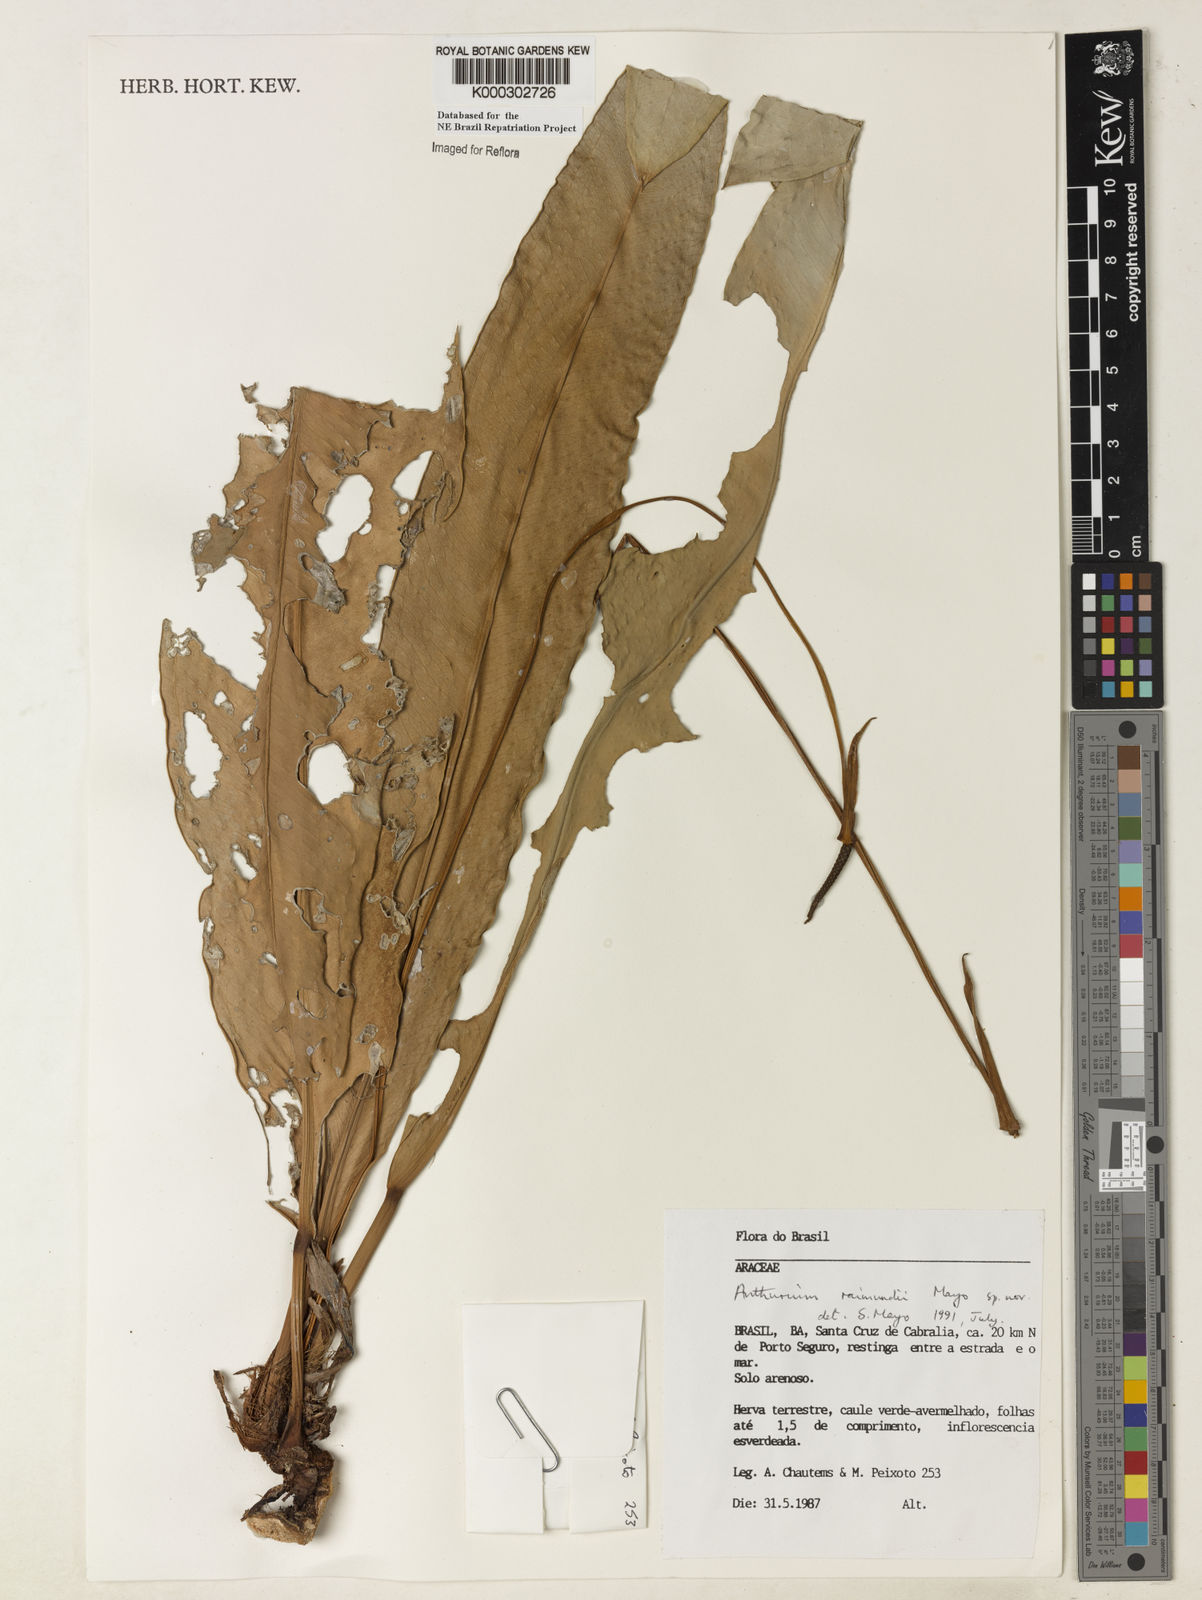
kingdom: Plantae
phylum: Tracheophyta
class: Liliopsida
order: Alismatales
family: Araceae
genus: Anthurium
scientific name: Anthurium raimundii
